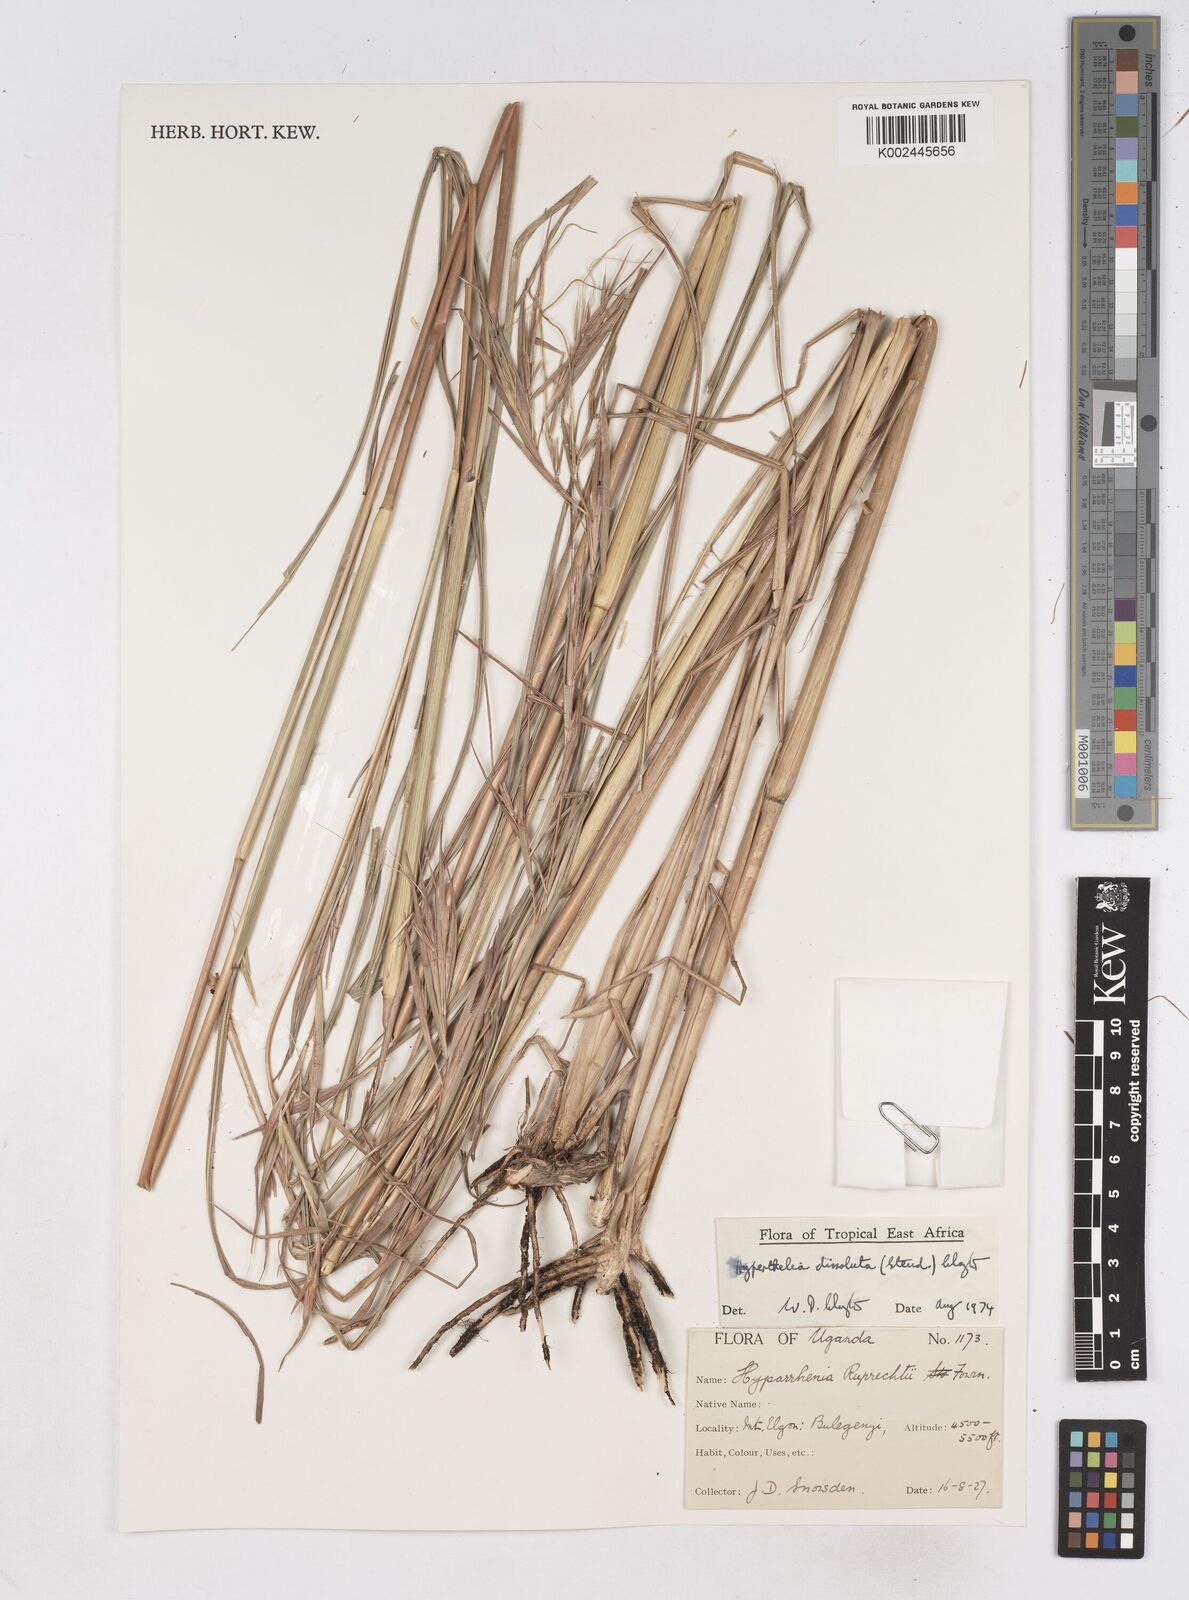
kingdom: Plantae
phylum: Tracheophyta
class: Liliopsida
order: Poales
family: Poaceae
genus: Hyperthelia
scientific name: Hyperthelia dissoluta
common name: Yellow thatching grass
